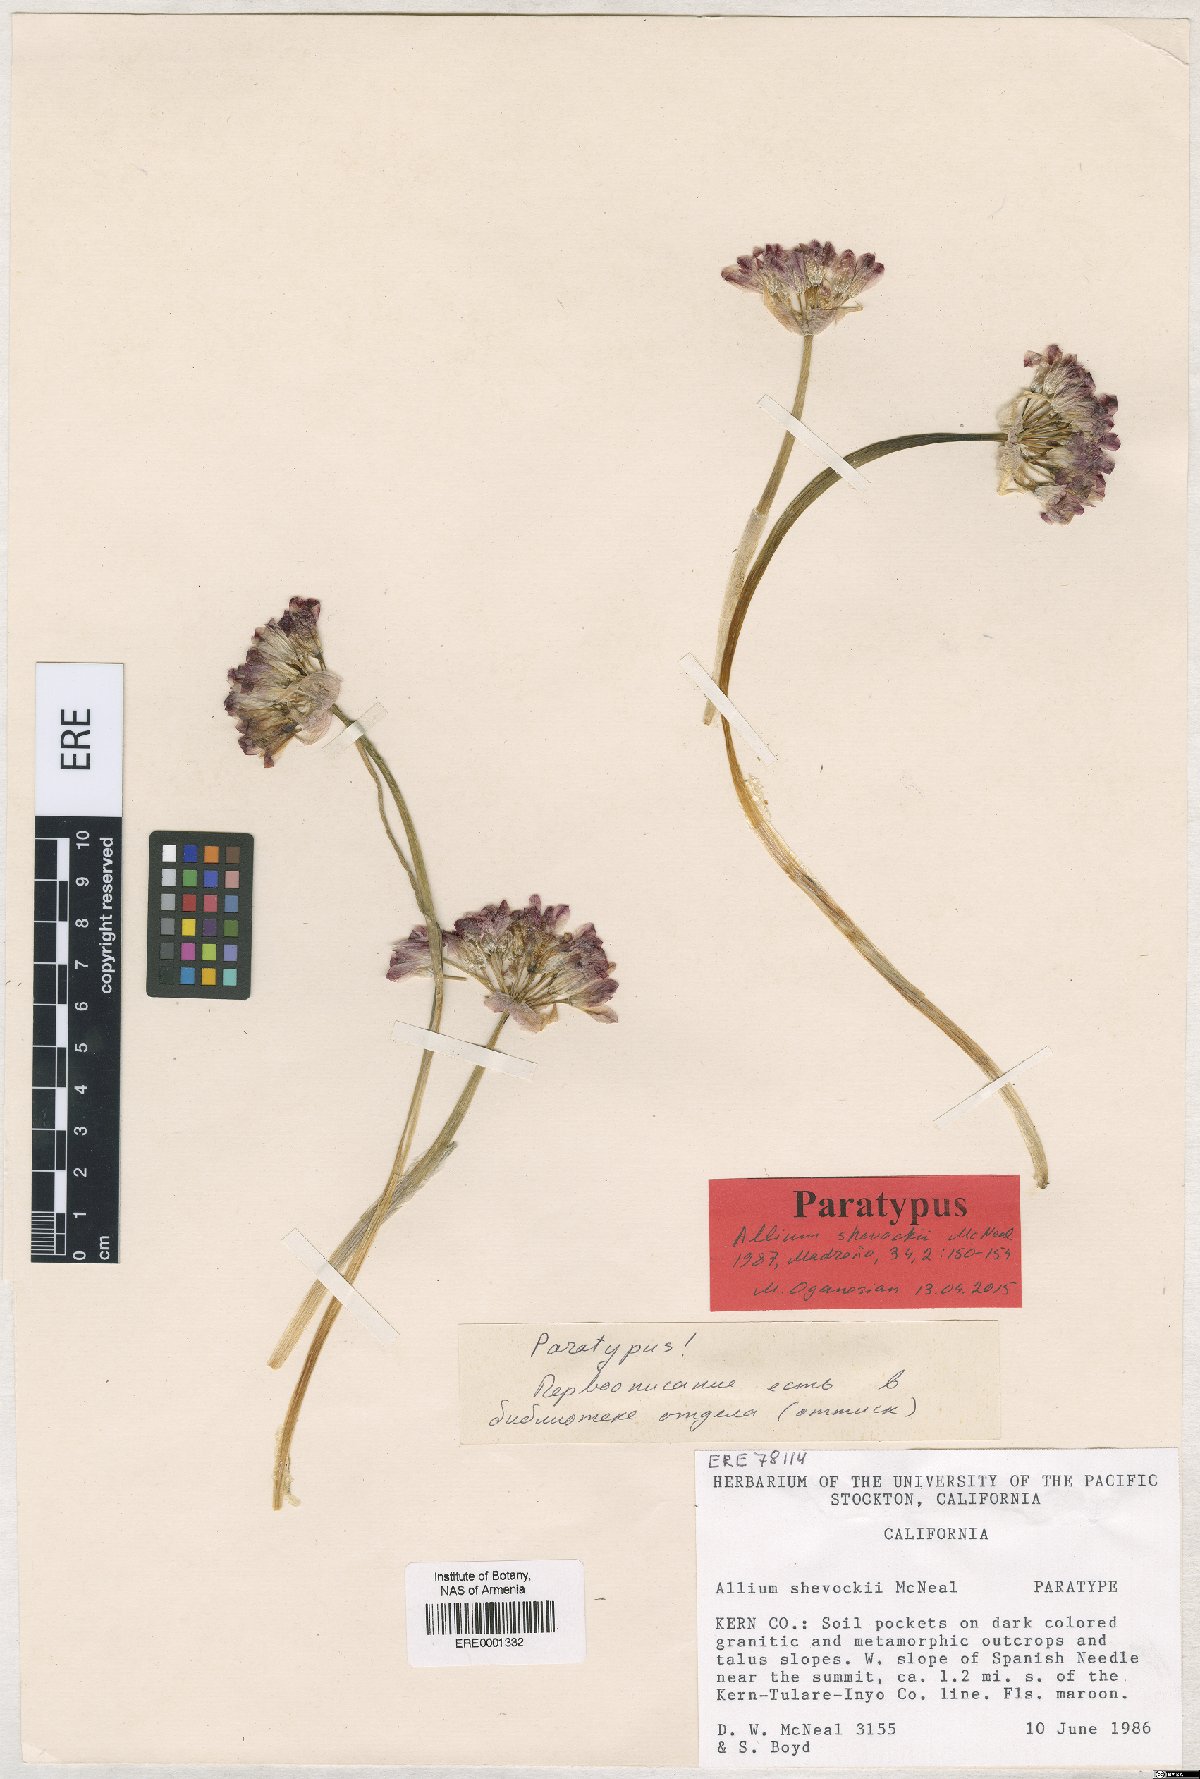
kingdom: Plantae
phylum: Tracheophyta
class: Liliopsida
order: Asparagales
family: Amaryllidaceae
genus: Allium
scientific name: Allium shevockii
